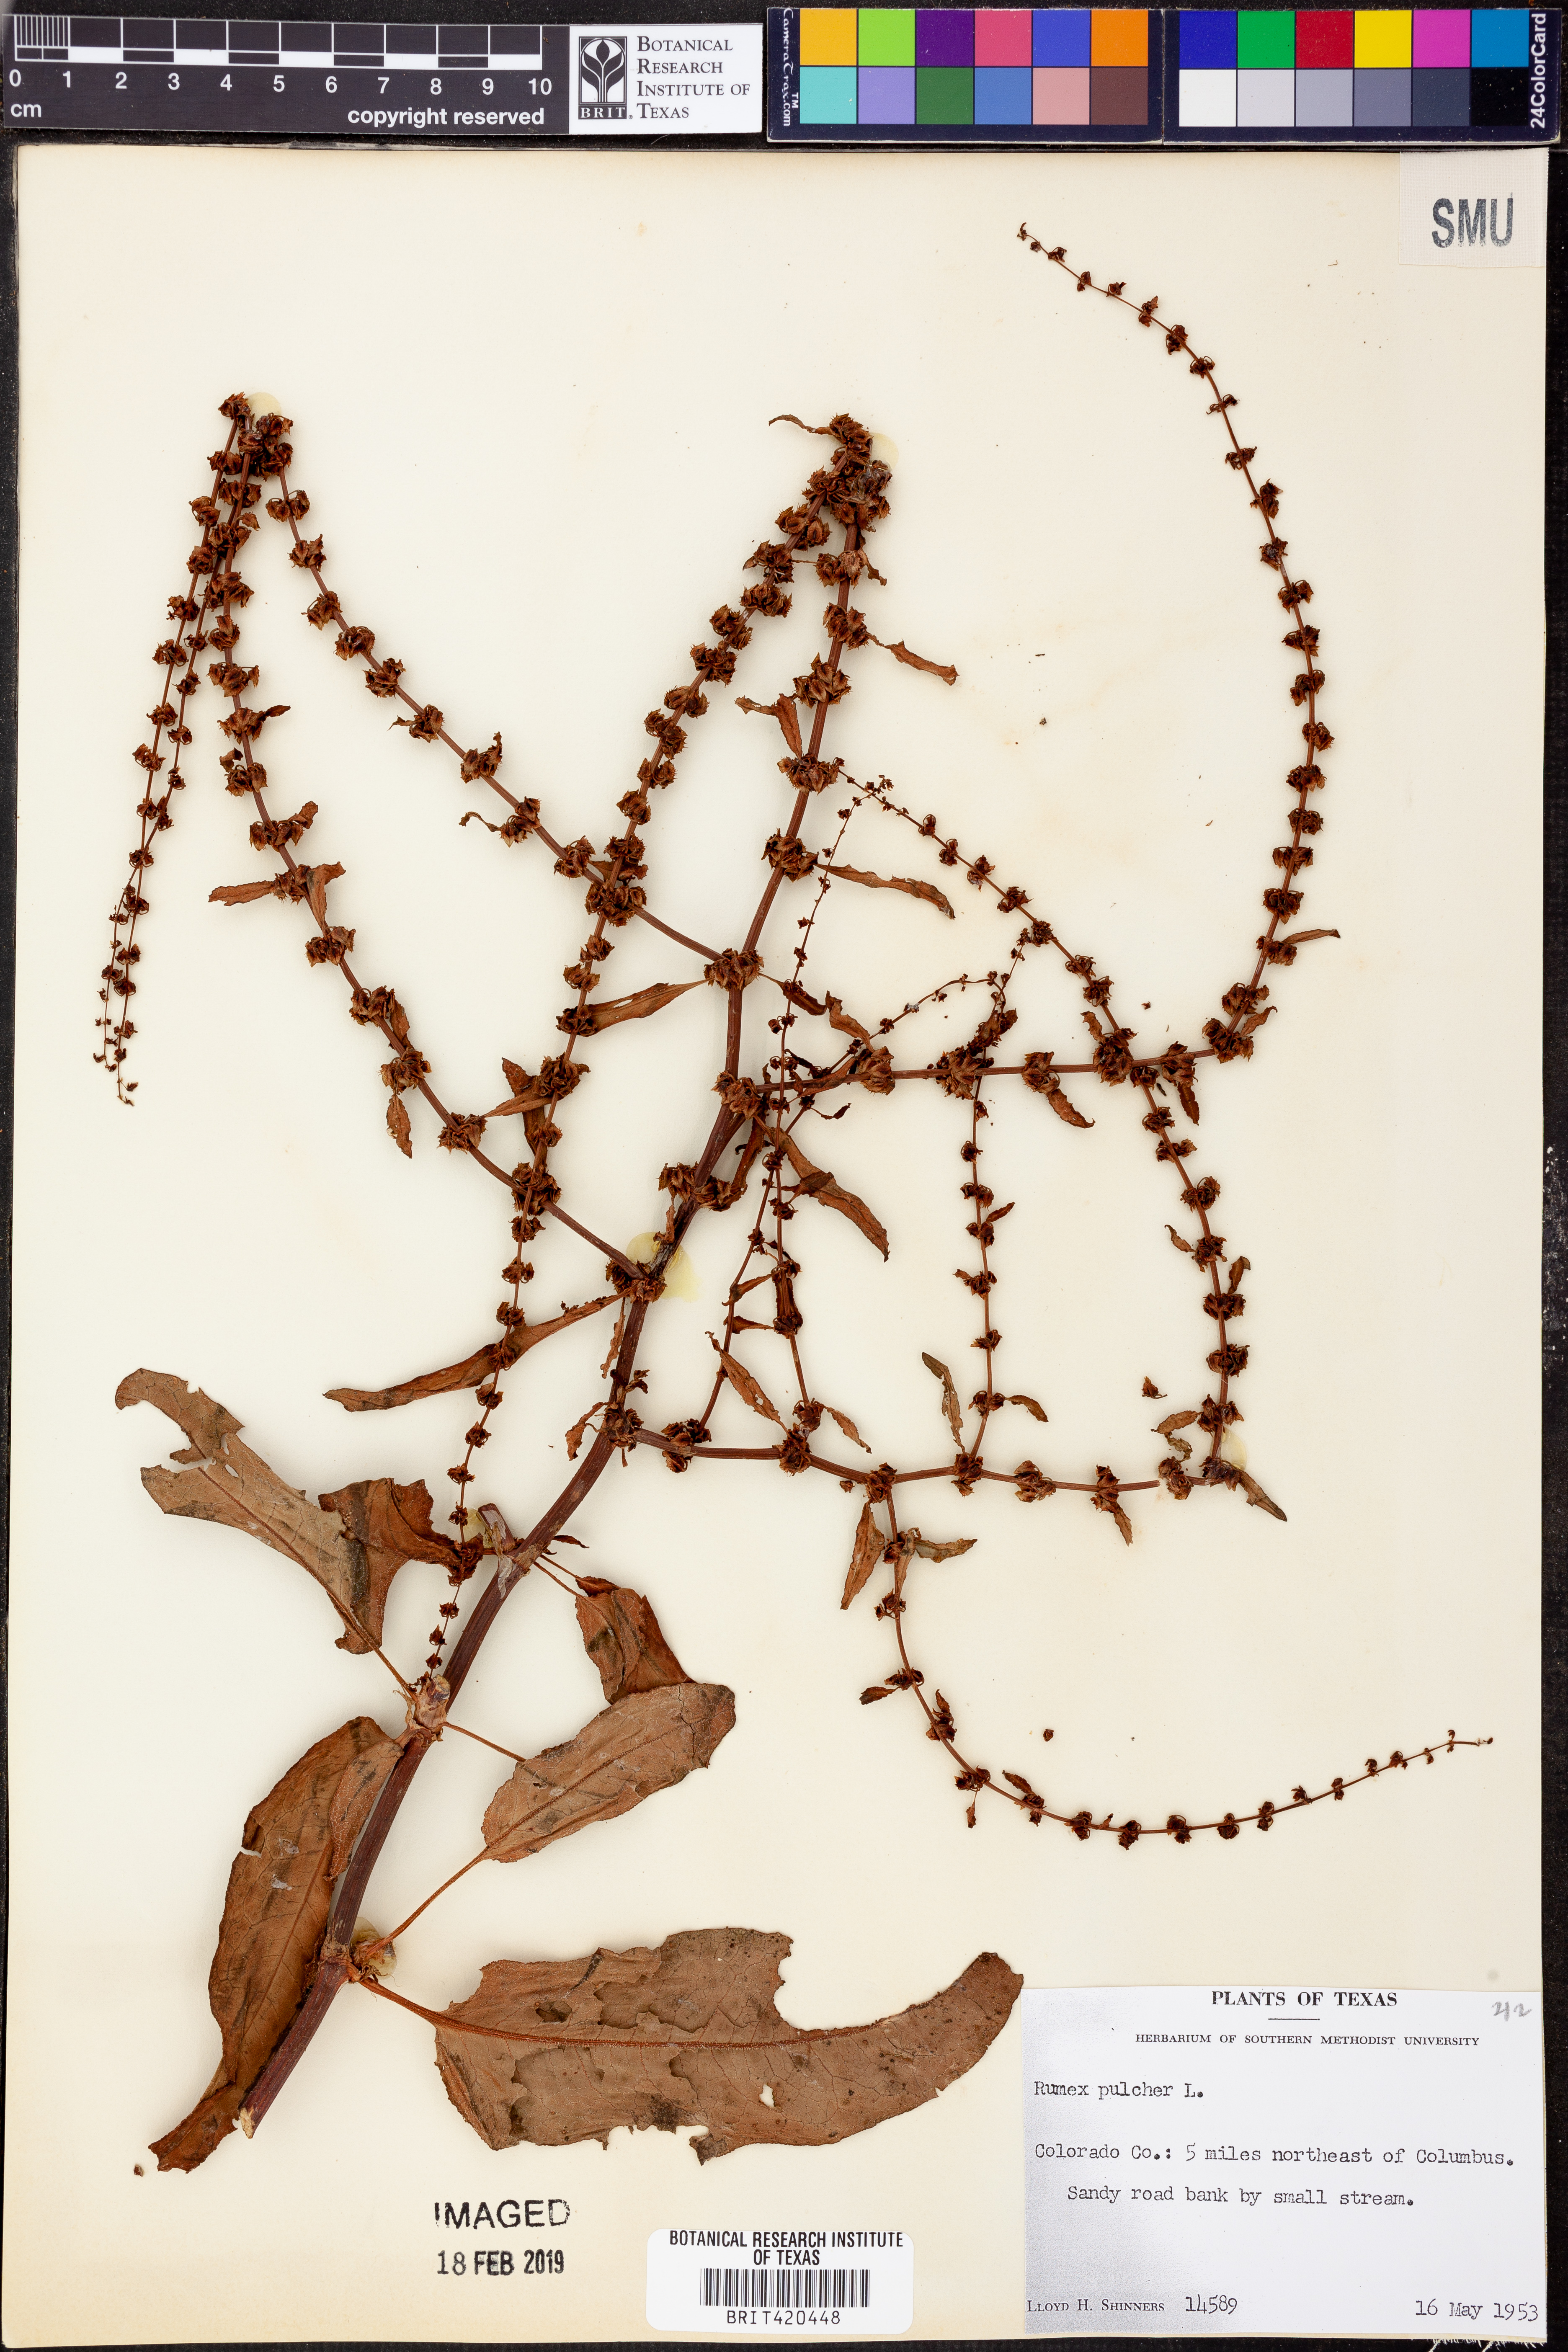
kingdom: Plantae
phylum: Tracheophyta
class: Magnoliopsida
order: Caryophyllales
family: Polygonaceae
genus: Rumex
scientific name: Rumex pulcher
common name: Fiddle dock
